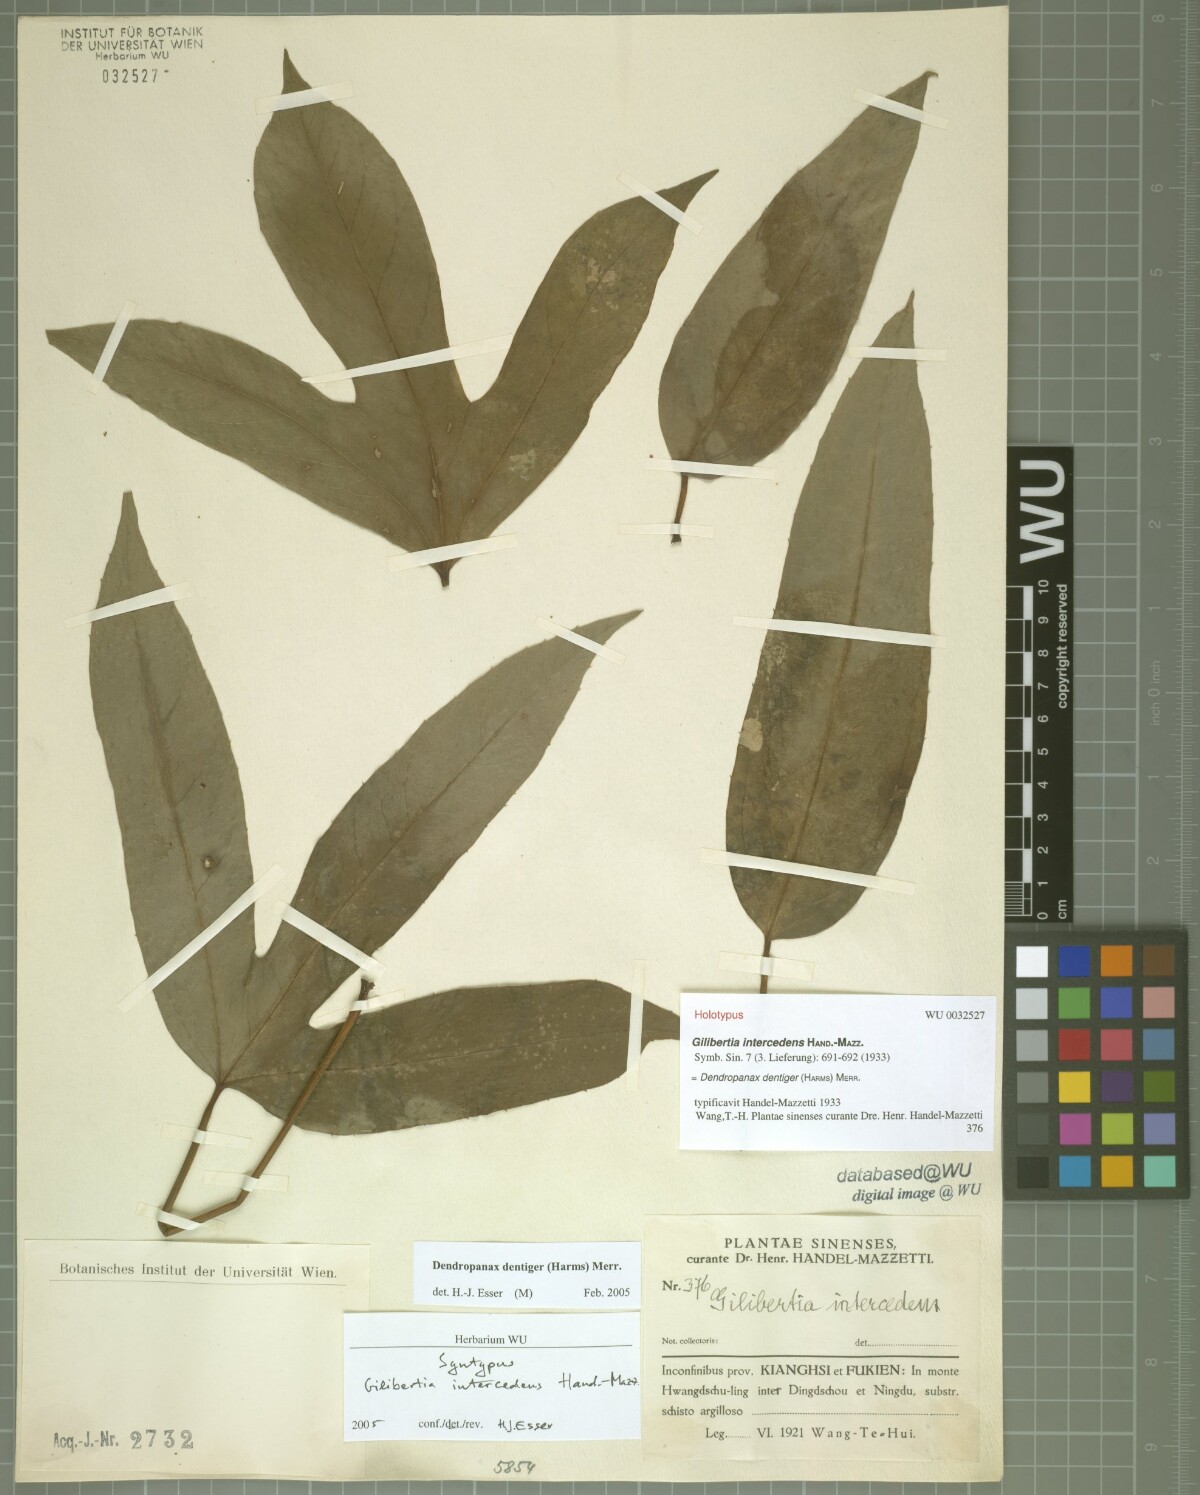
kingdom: Plantae
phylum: Tracheophyta
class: Magnoliopsida
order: Apiales
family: Araliaceae
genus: Dendropanax
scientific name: Dendropanax dentigerus
